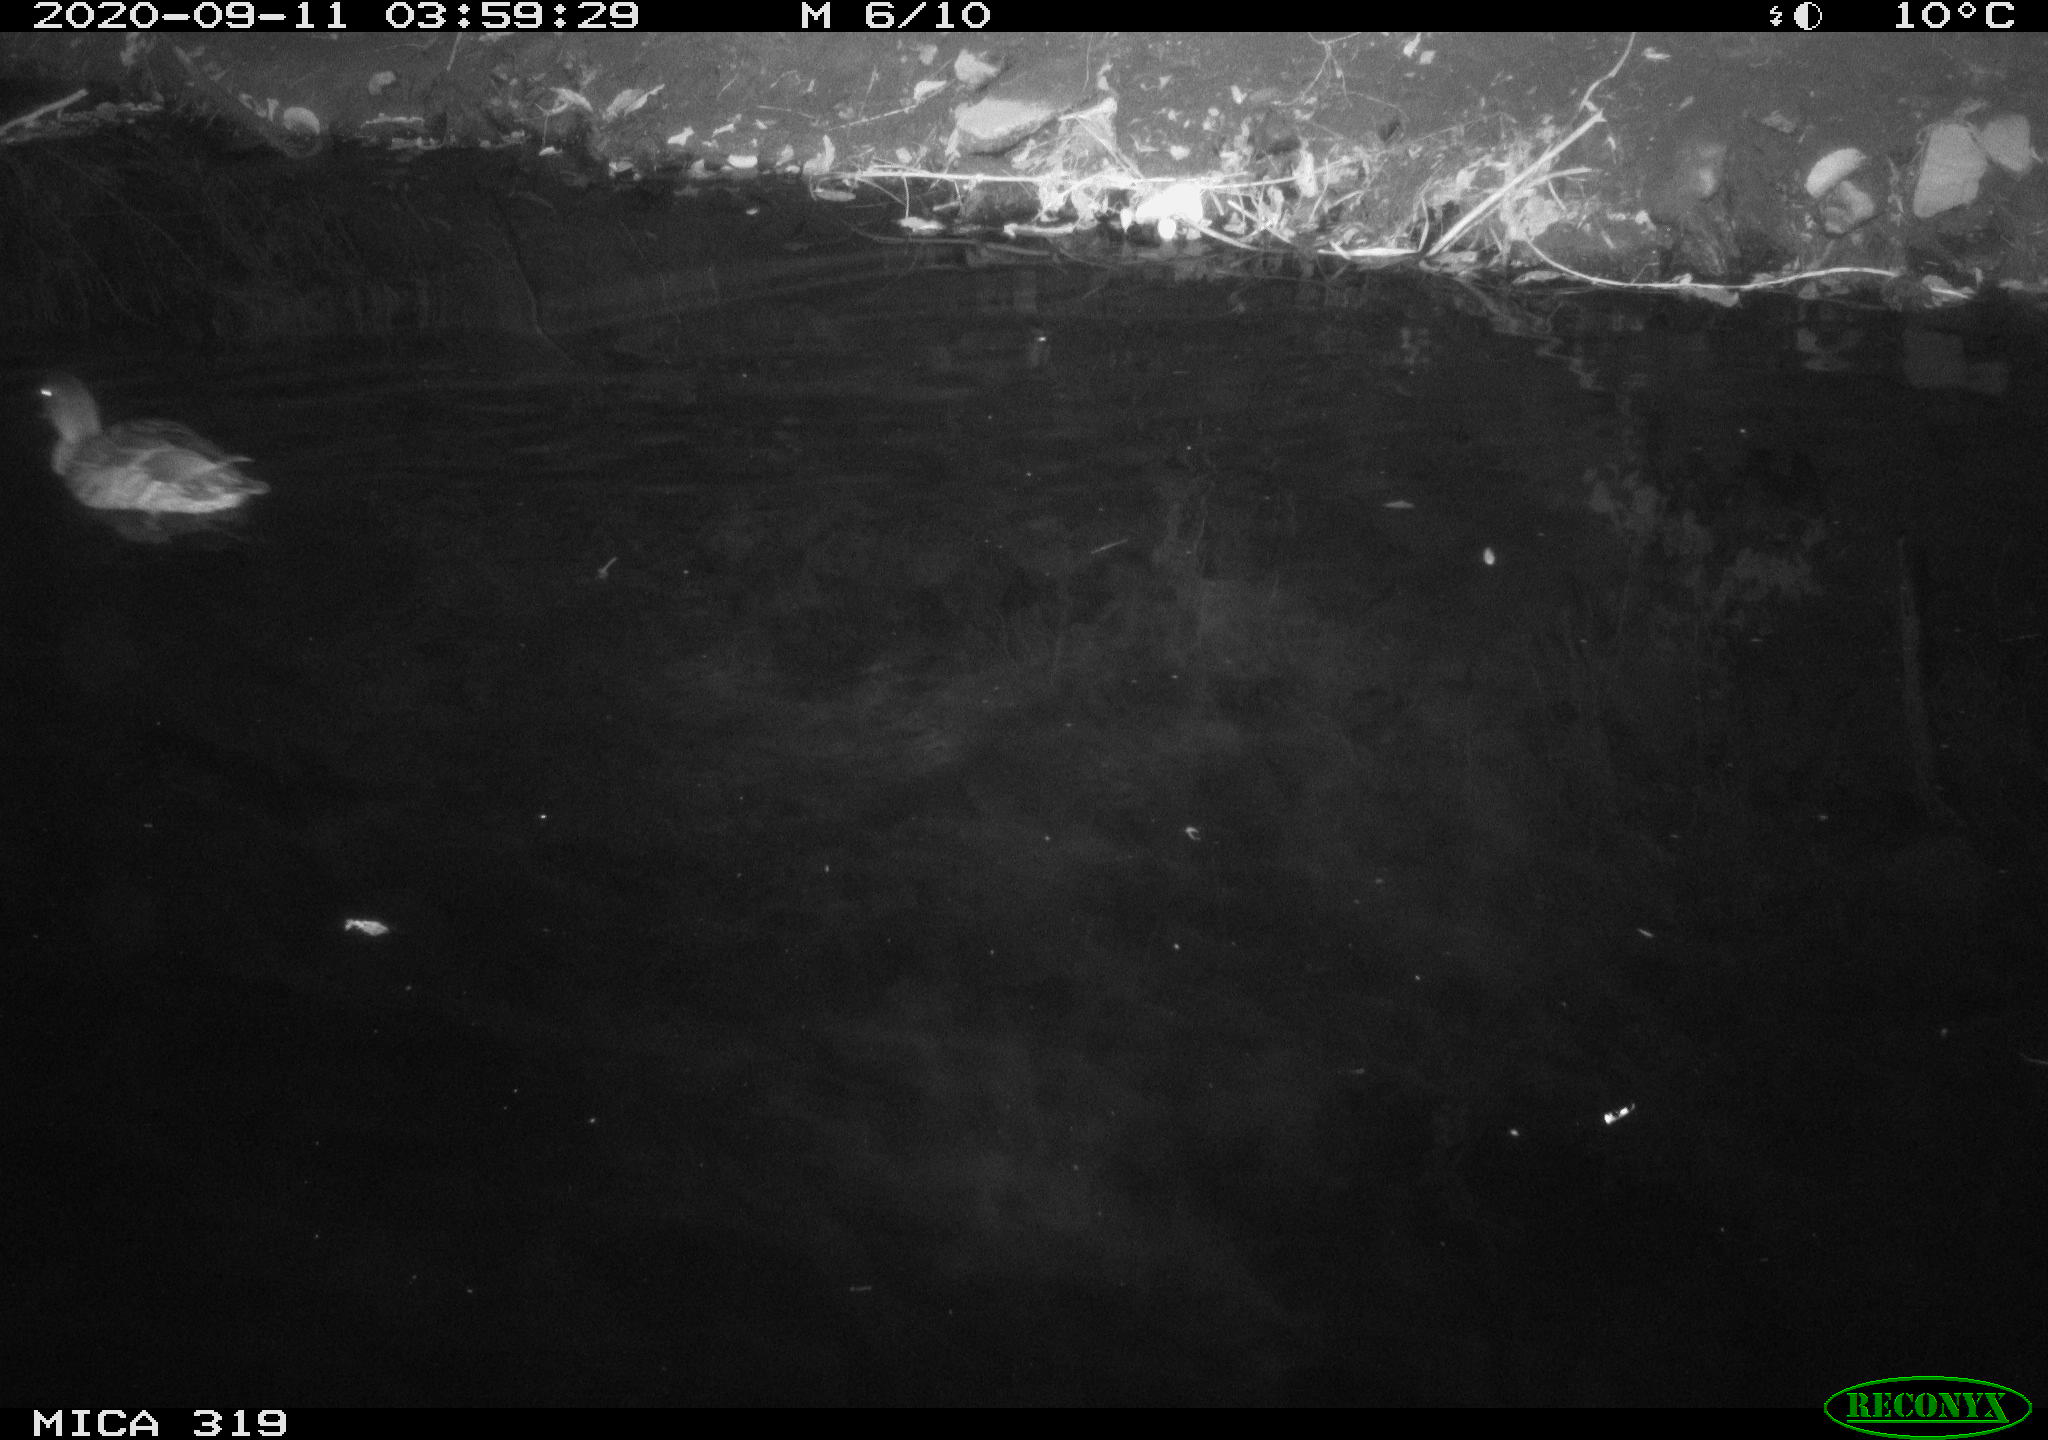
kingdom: Animalia
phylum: Chordata
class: Aves
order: Anseriformes
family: Anatidae
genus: Anas
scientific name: Anas platyrhynchos
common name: Mallard
